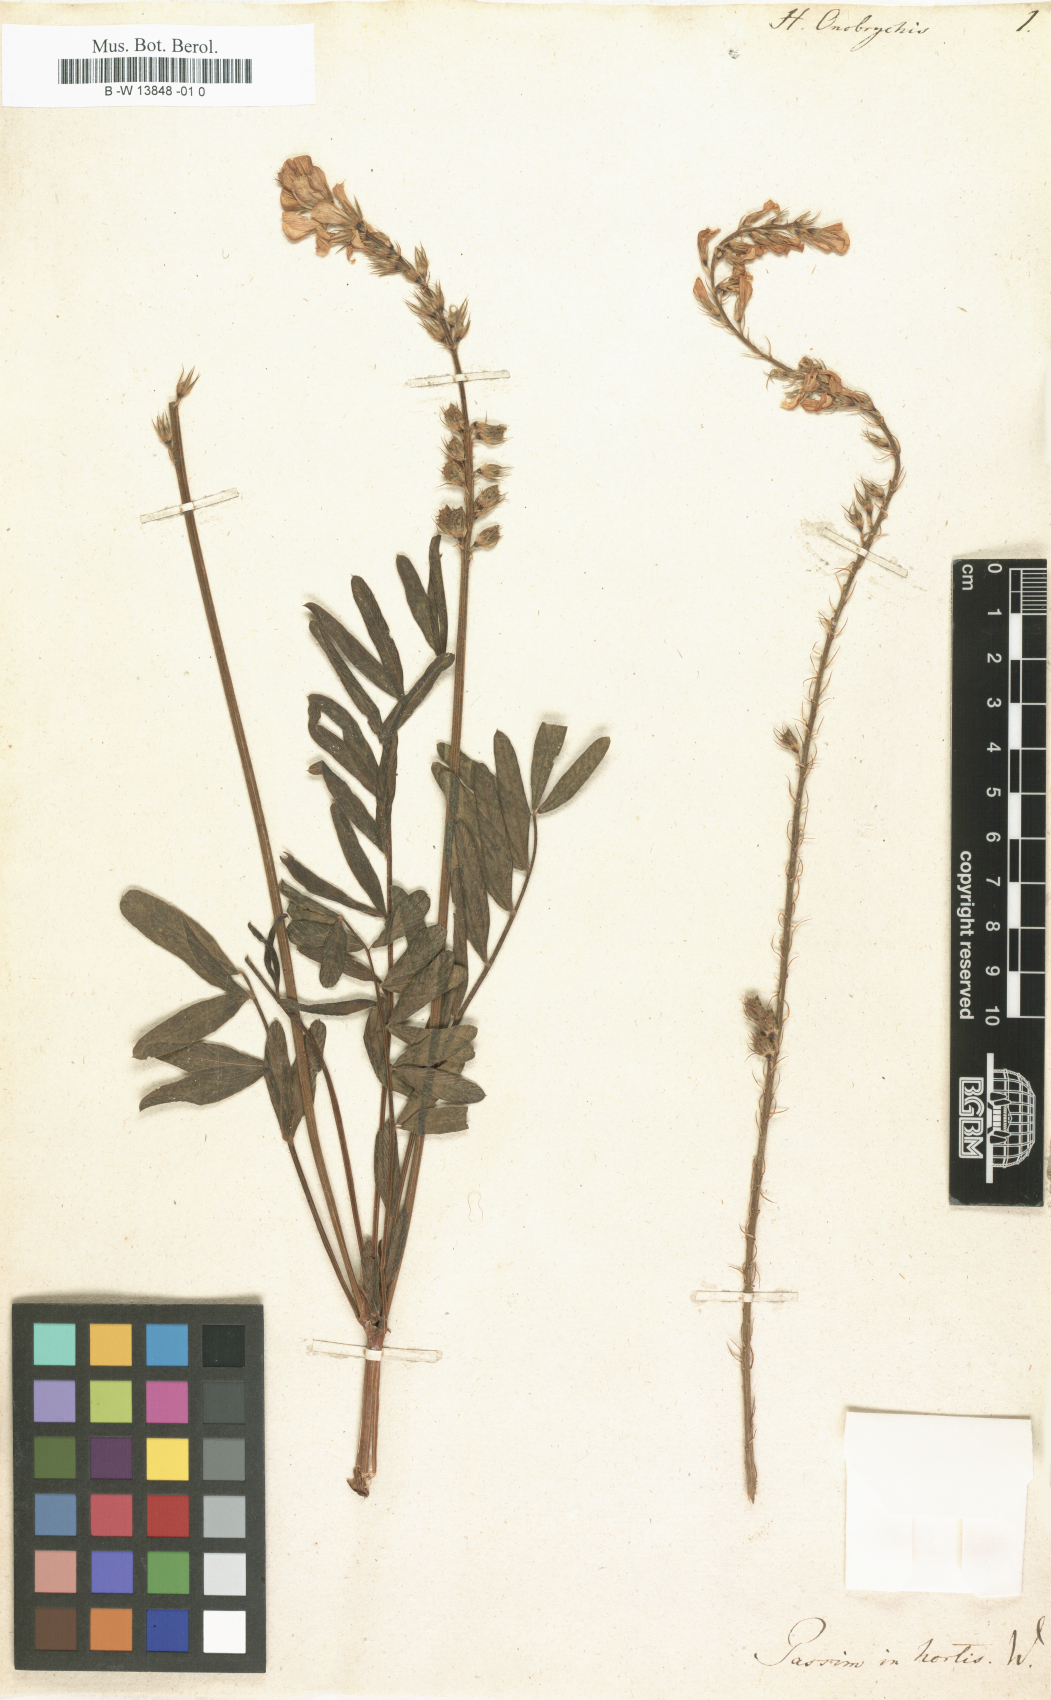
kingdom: Plantae
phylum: Tracheophyta
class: Magnoliopsida
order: Fabales
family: Fabaceae
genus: Onobrychis
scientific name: Onobrychis viciifolia
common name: Sainfoin
